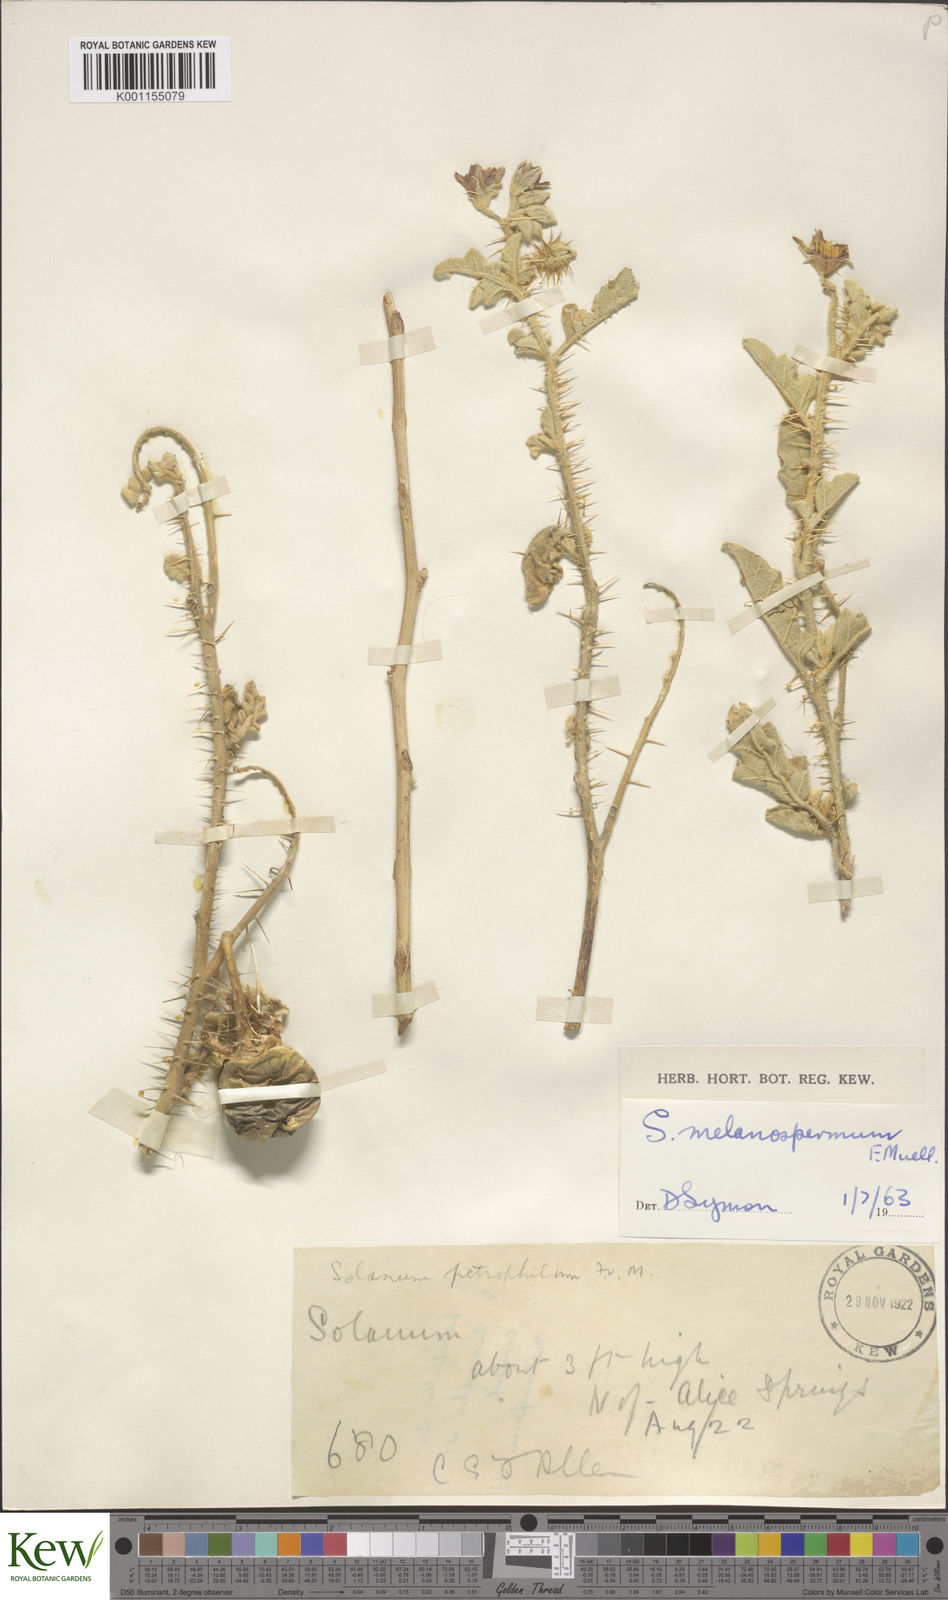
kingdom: Plantae
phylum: Tracheophyta
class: Magnoliopsida
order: Solanales
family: Solanaceae
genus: Solanum
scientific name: Solanum chippendalei
